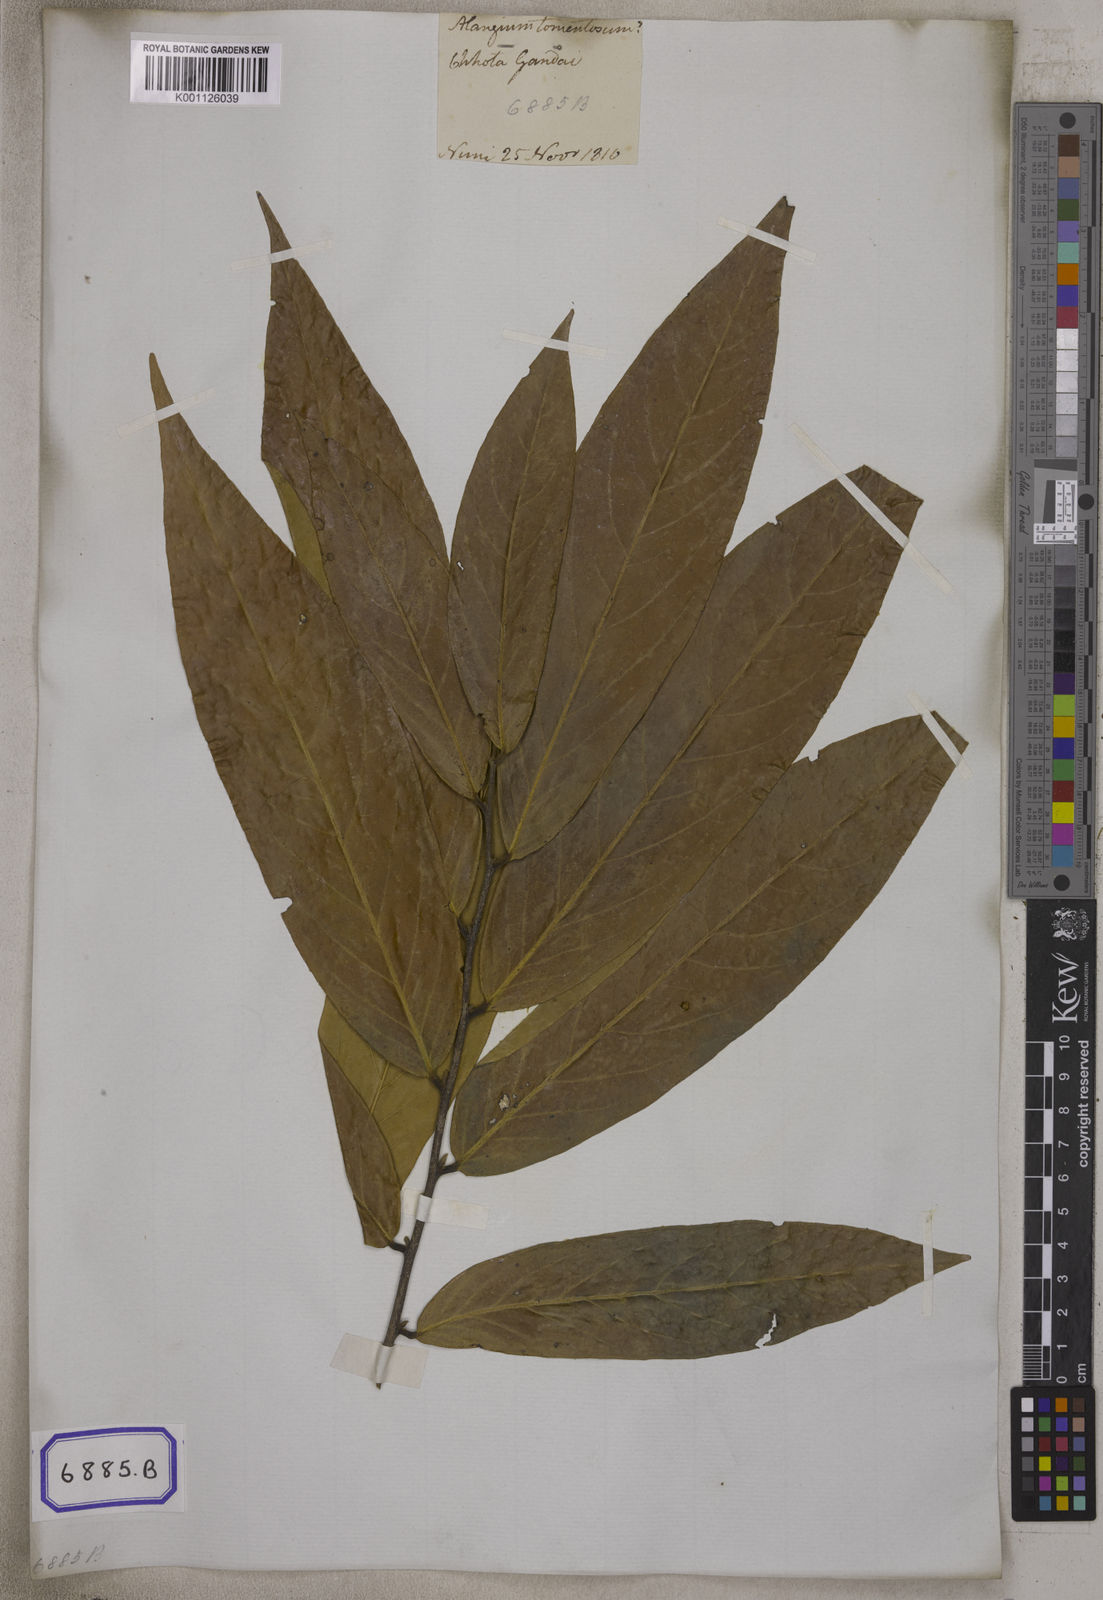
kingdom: Plantae
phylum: Tracheophyta
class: Magnoliopsida
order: Cornales
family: Cornaceae
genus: Alangium
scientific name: Alangium salviifolium
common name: Sage-leaf alangium
